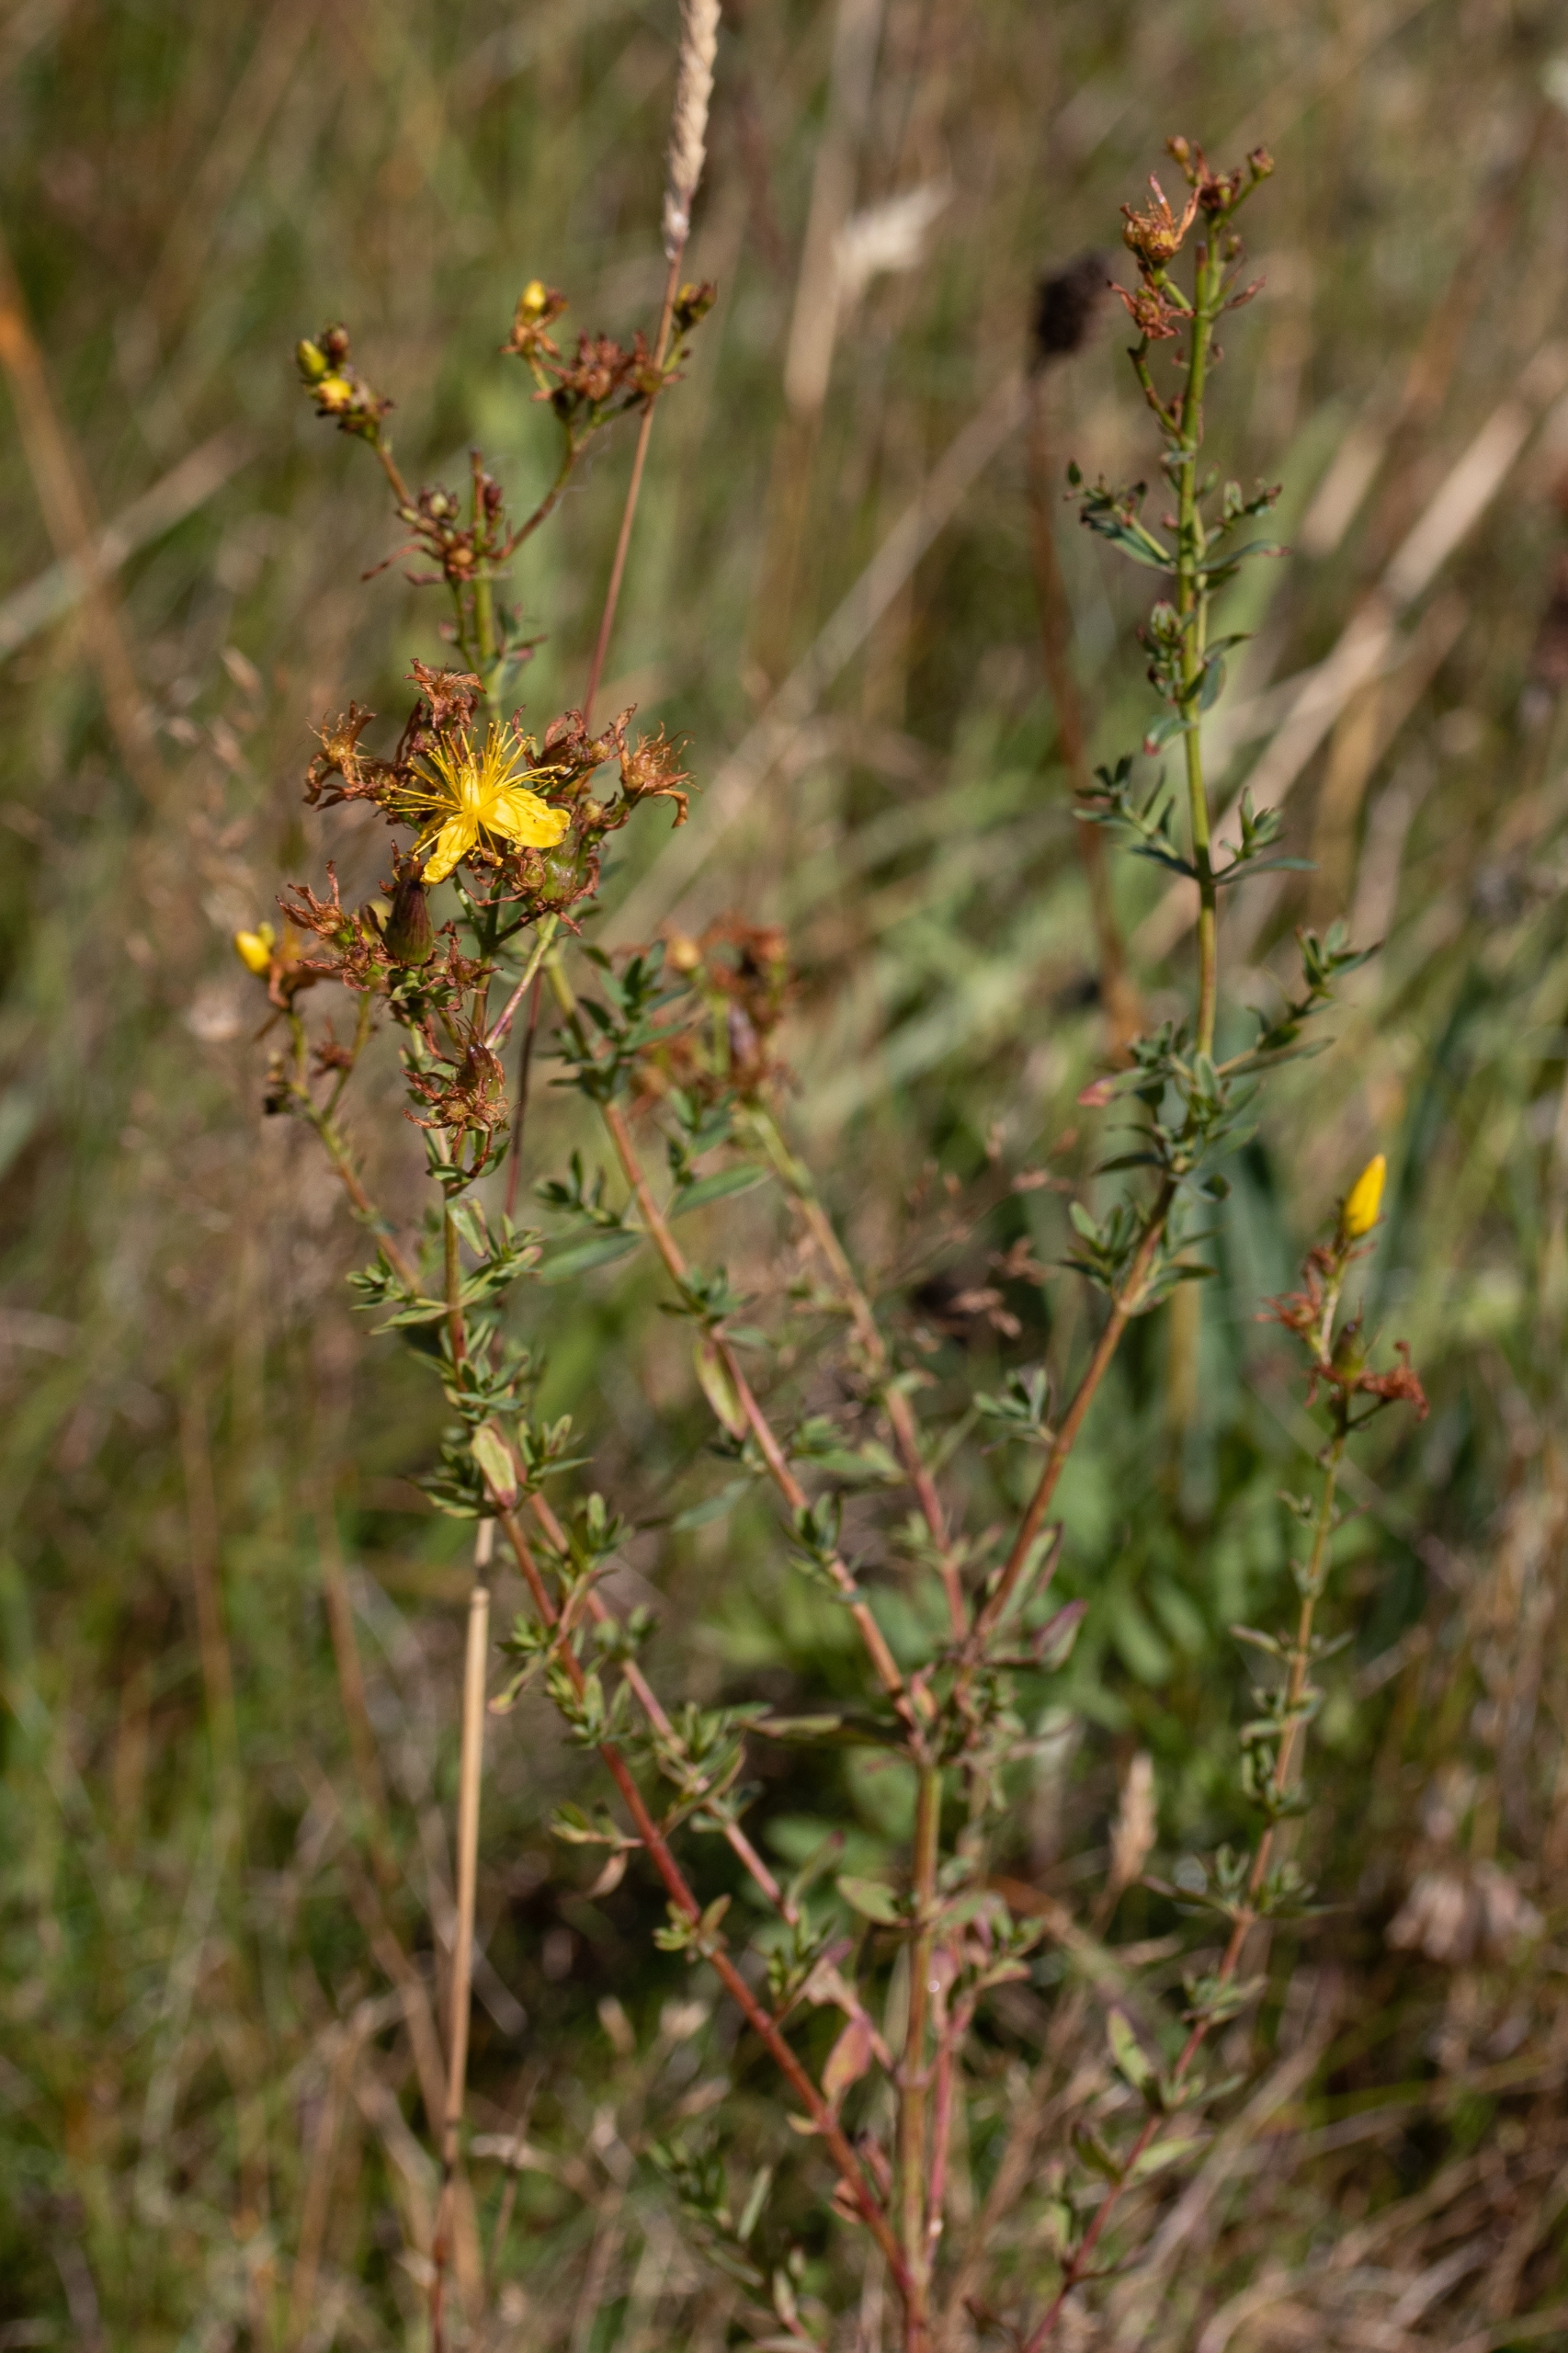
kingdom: Plantae
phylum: Tracheophyta
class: Magnoliopsida
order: Malpighiales
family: Hypericaceae
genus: Hypericum
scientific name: Hypericum perforatum
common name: Prikbladet perikon
